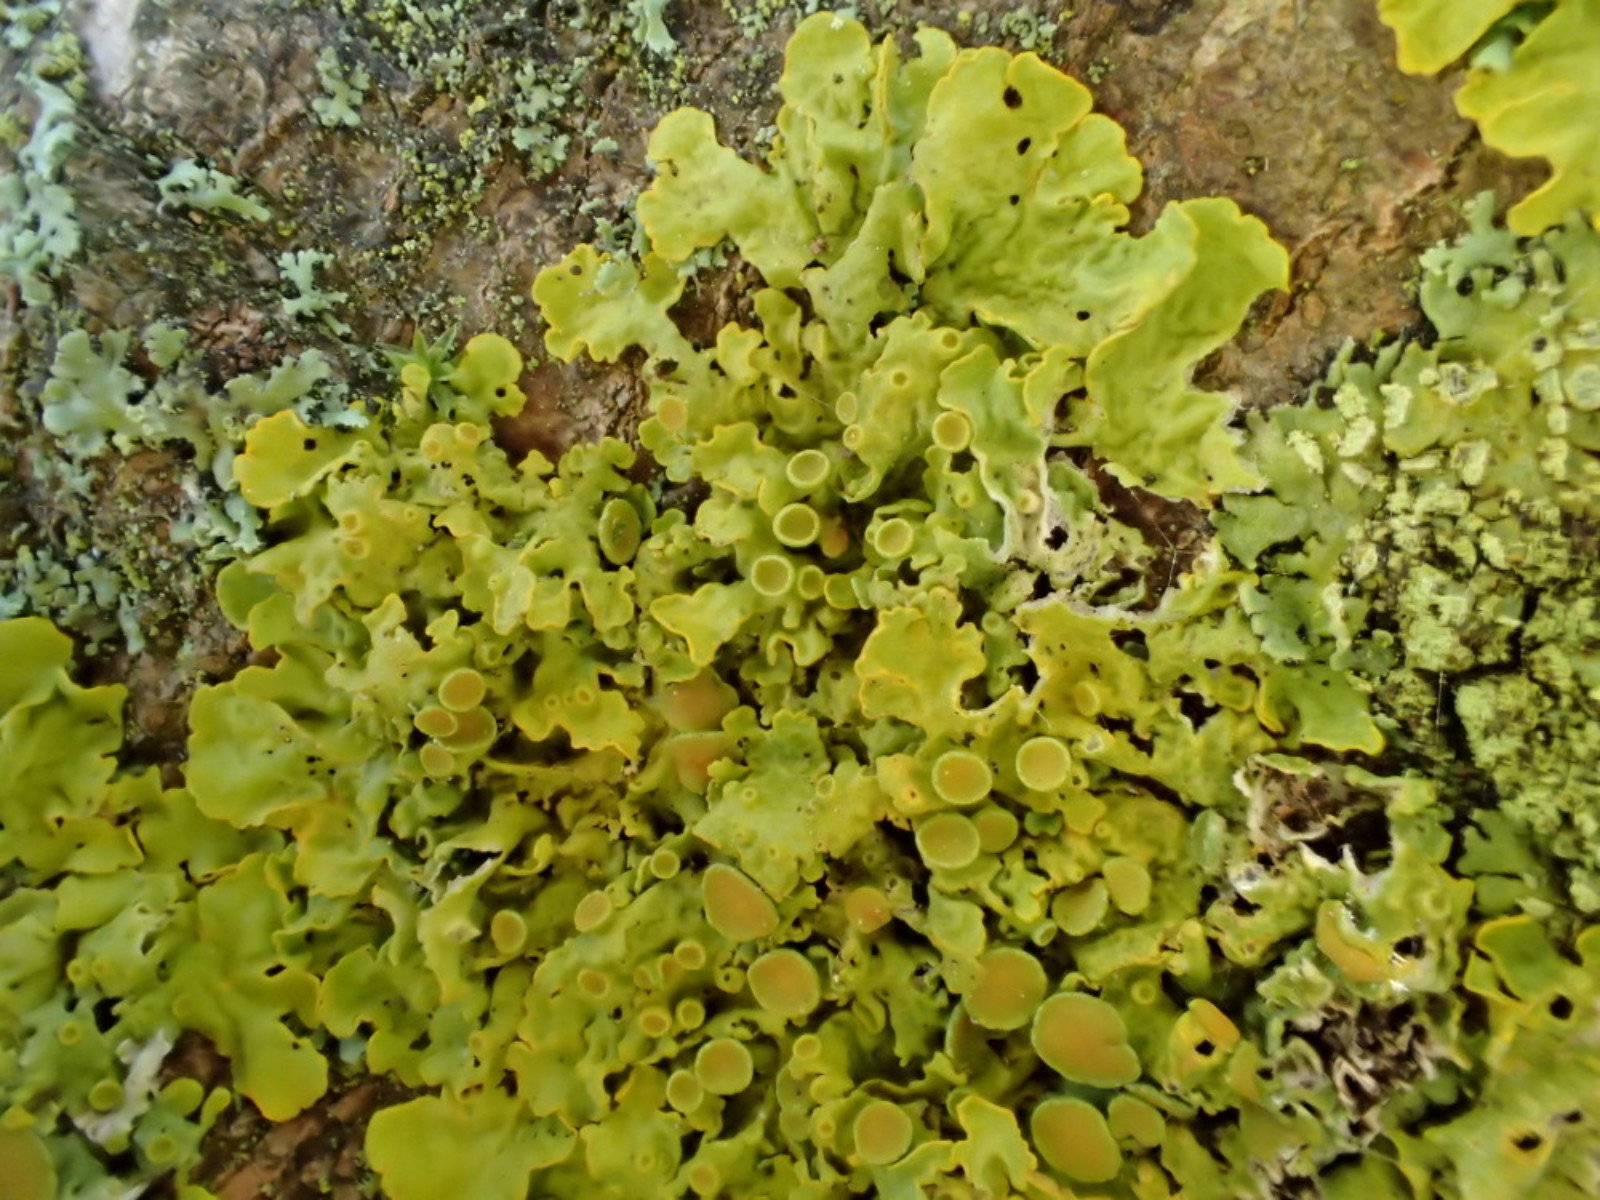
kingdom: Fungi
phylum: Ascomycota
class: Lecanoromycetes
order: Teloschistales
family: Teloschistaceae
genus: Xanthoria
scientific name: Xanthoria parietina
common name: almindelig væggelav
